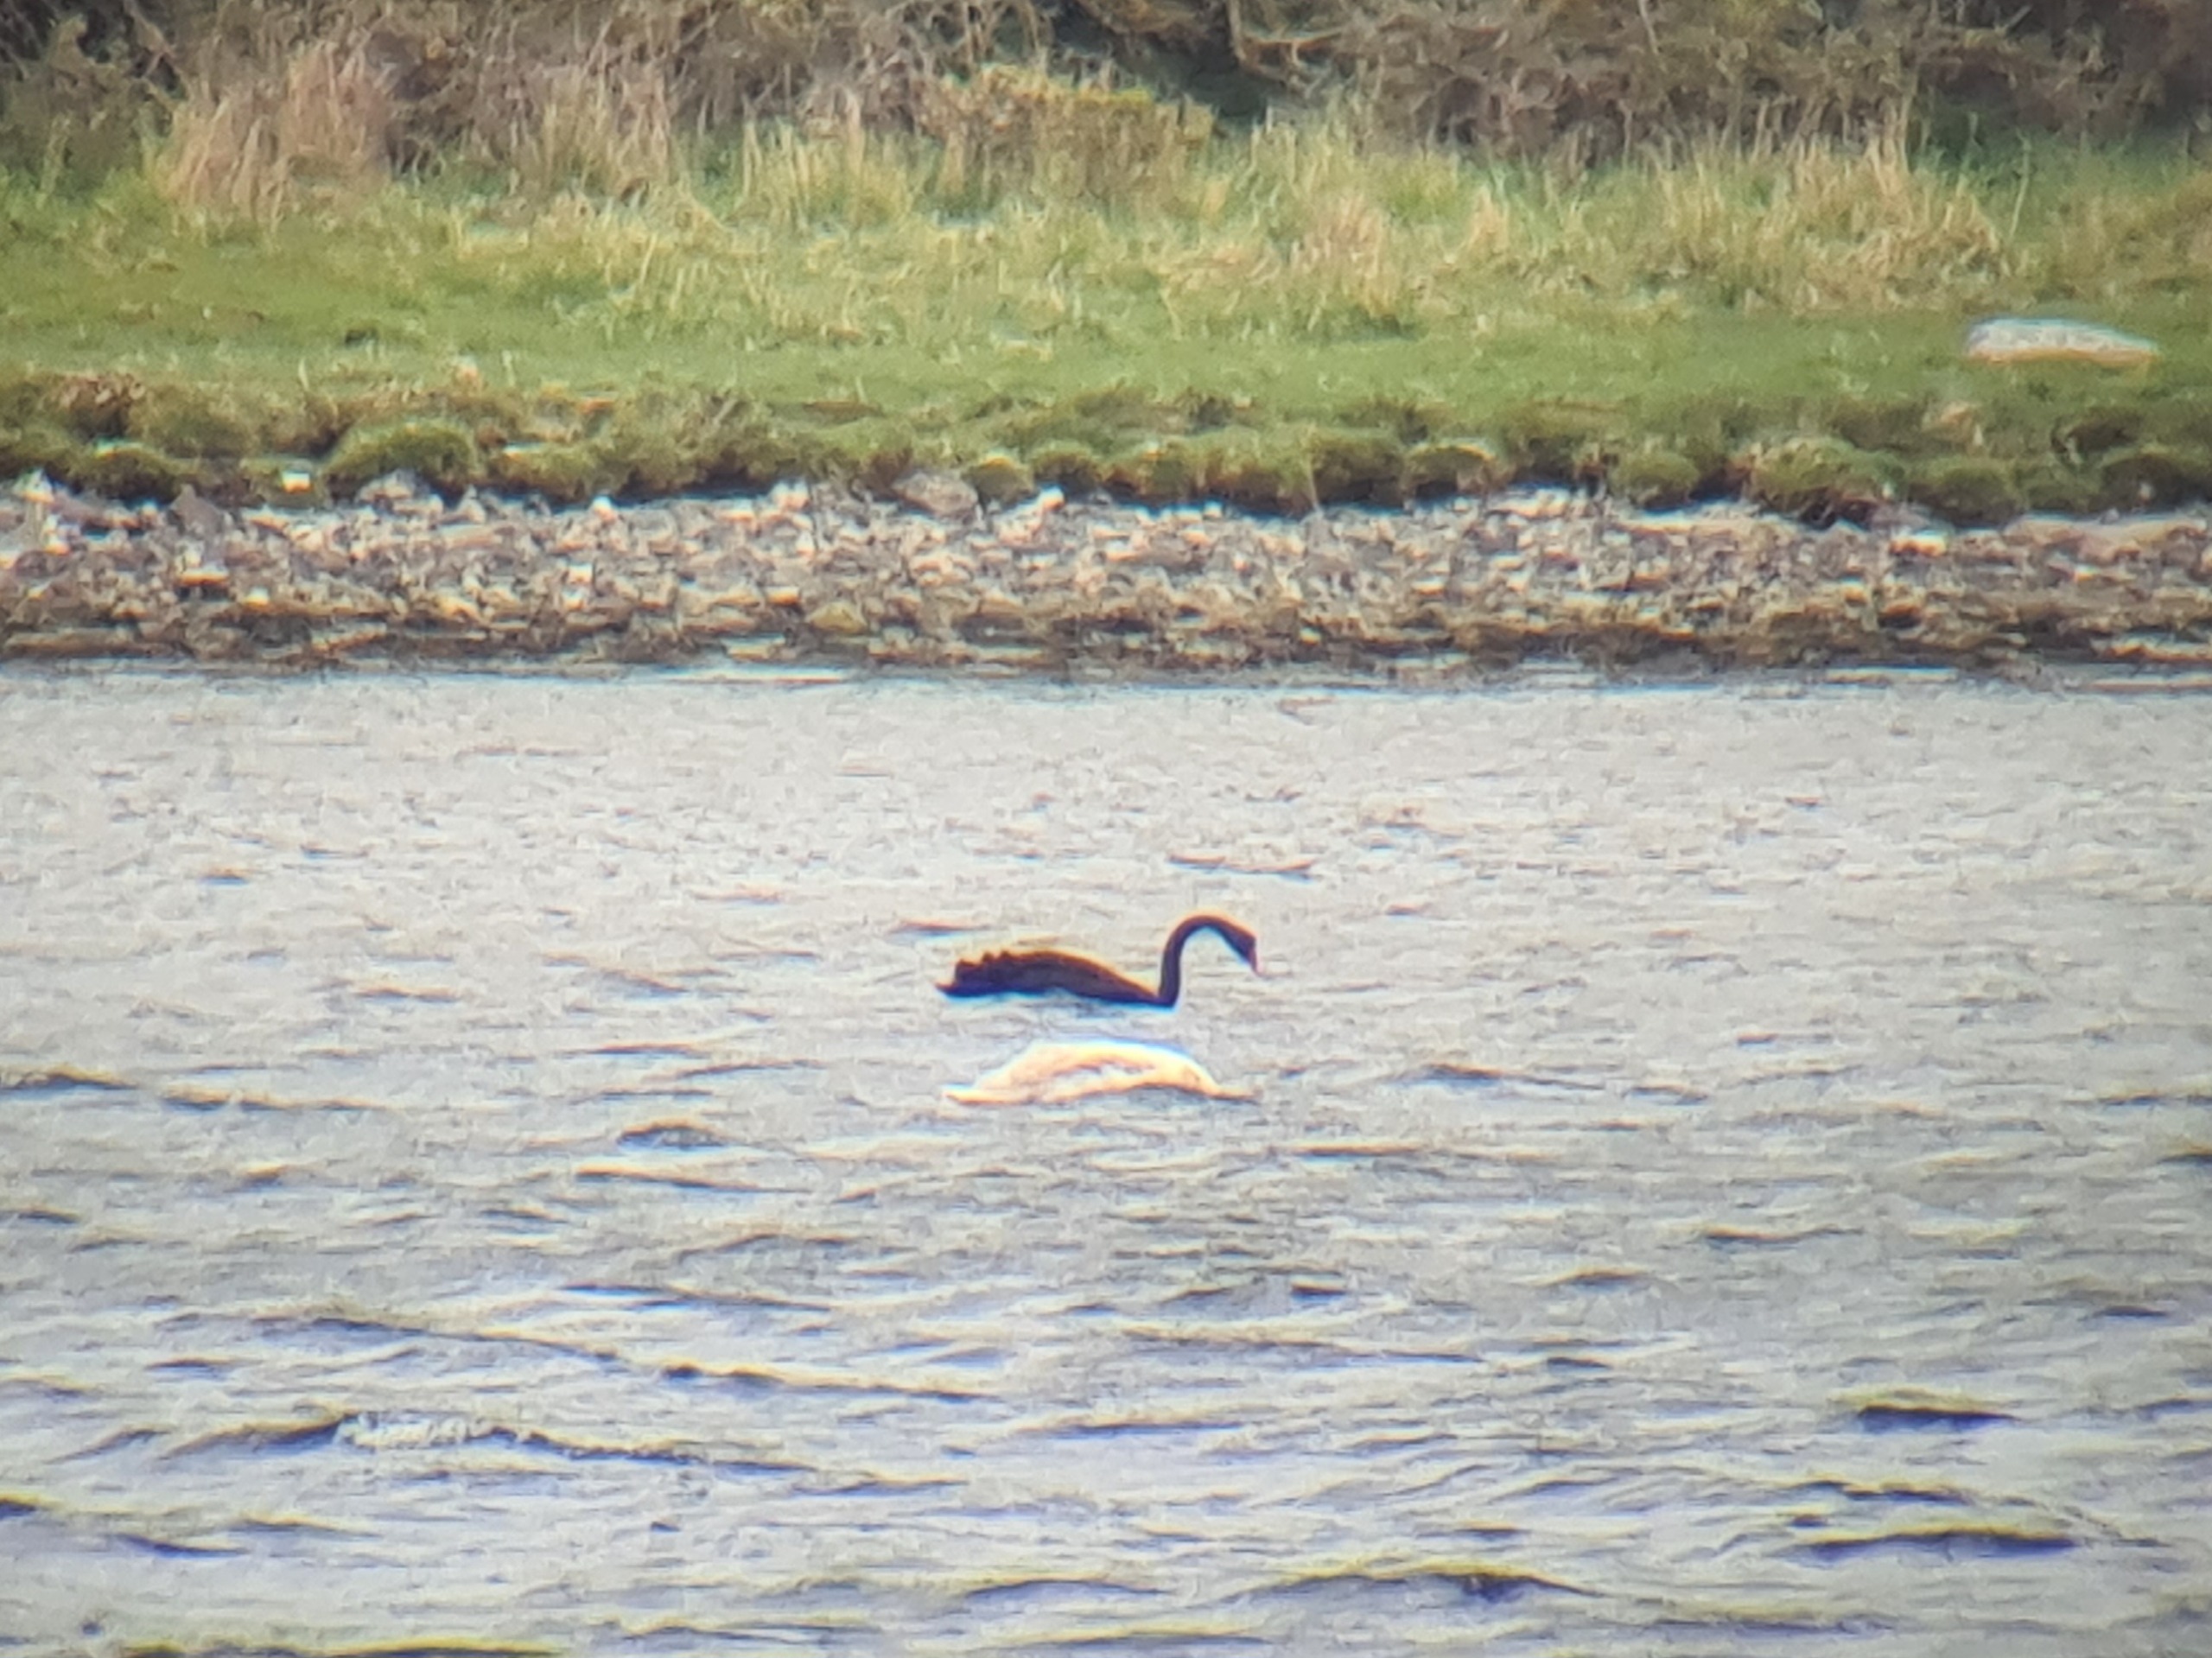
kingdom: Animalia
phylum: Chordata
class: Aves
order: Anseriformes
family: Anatidae
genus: Cygnus
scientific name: Cygnus atratus
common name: Sortsvane
